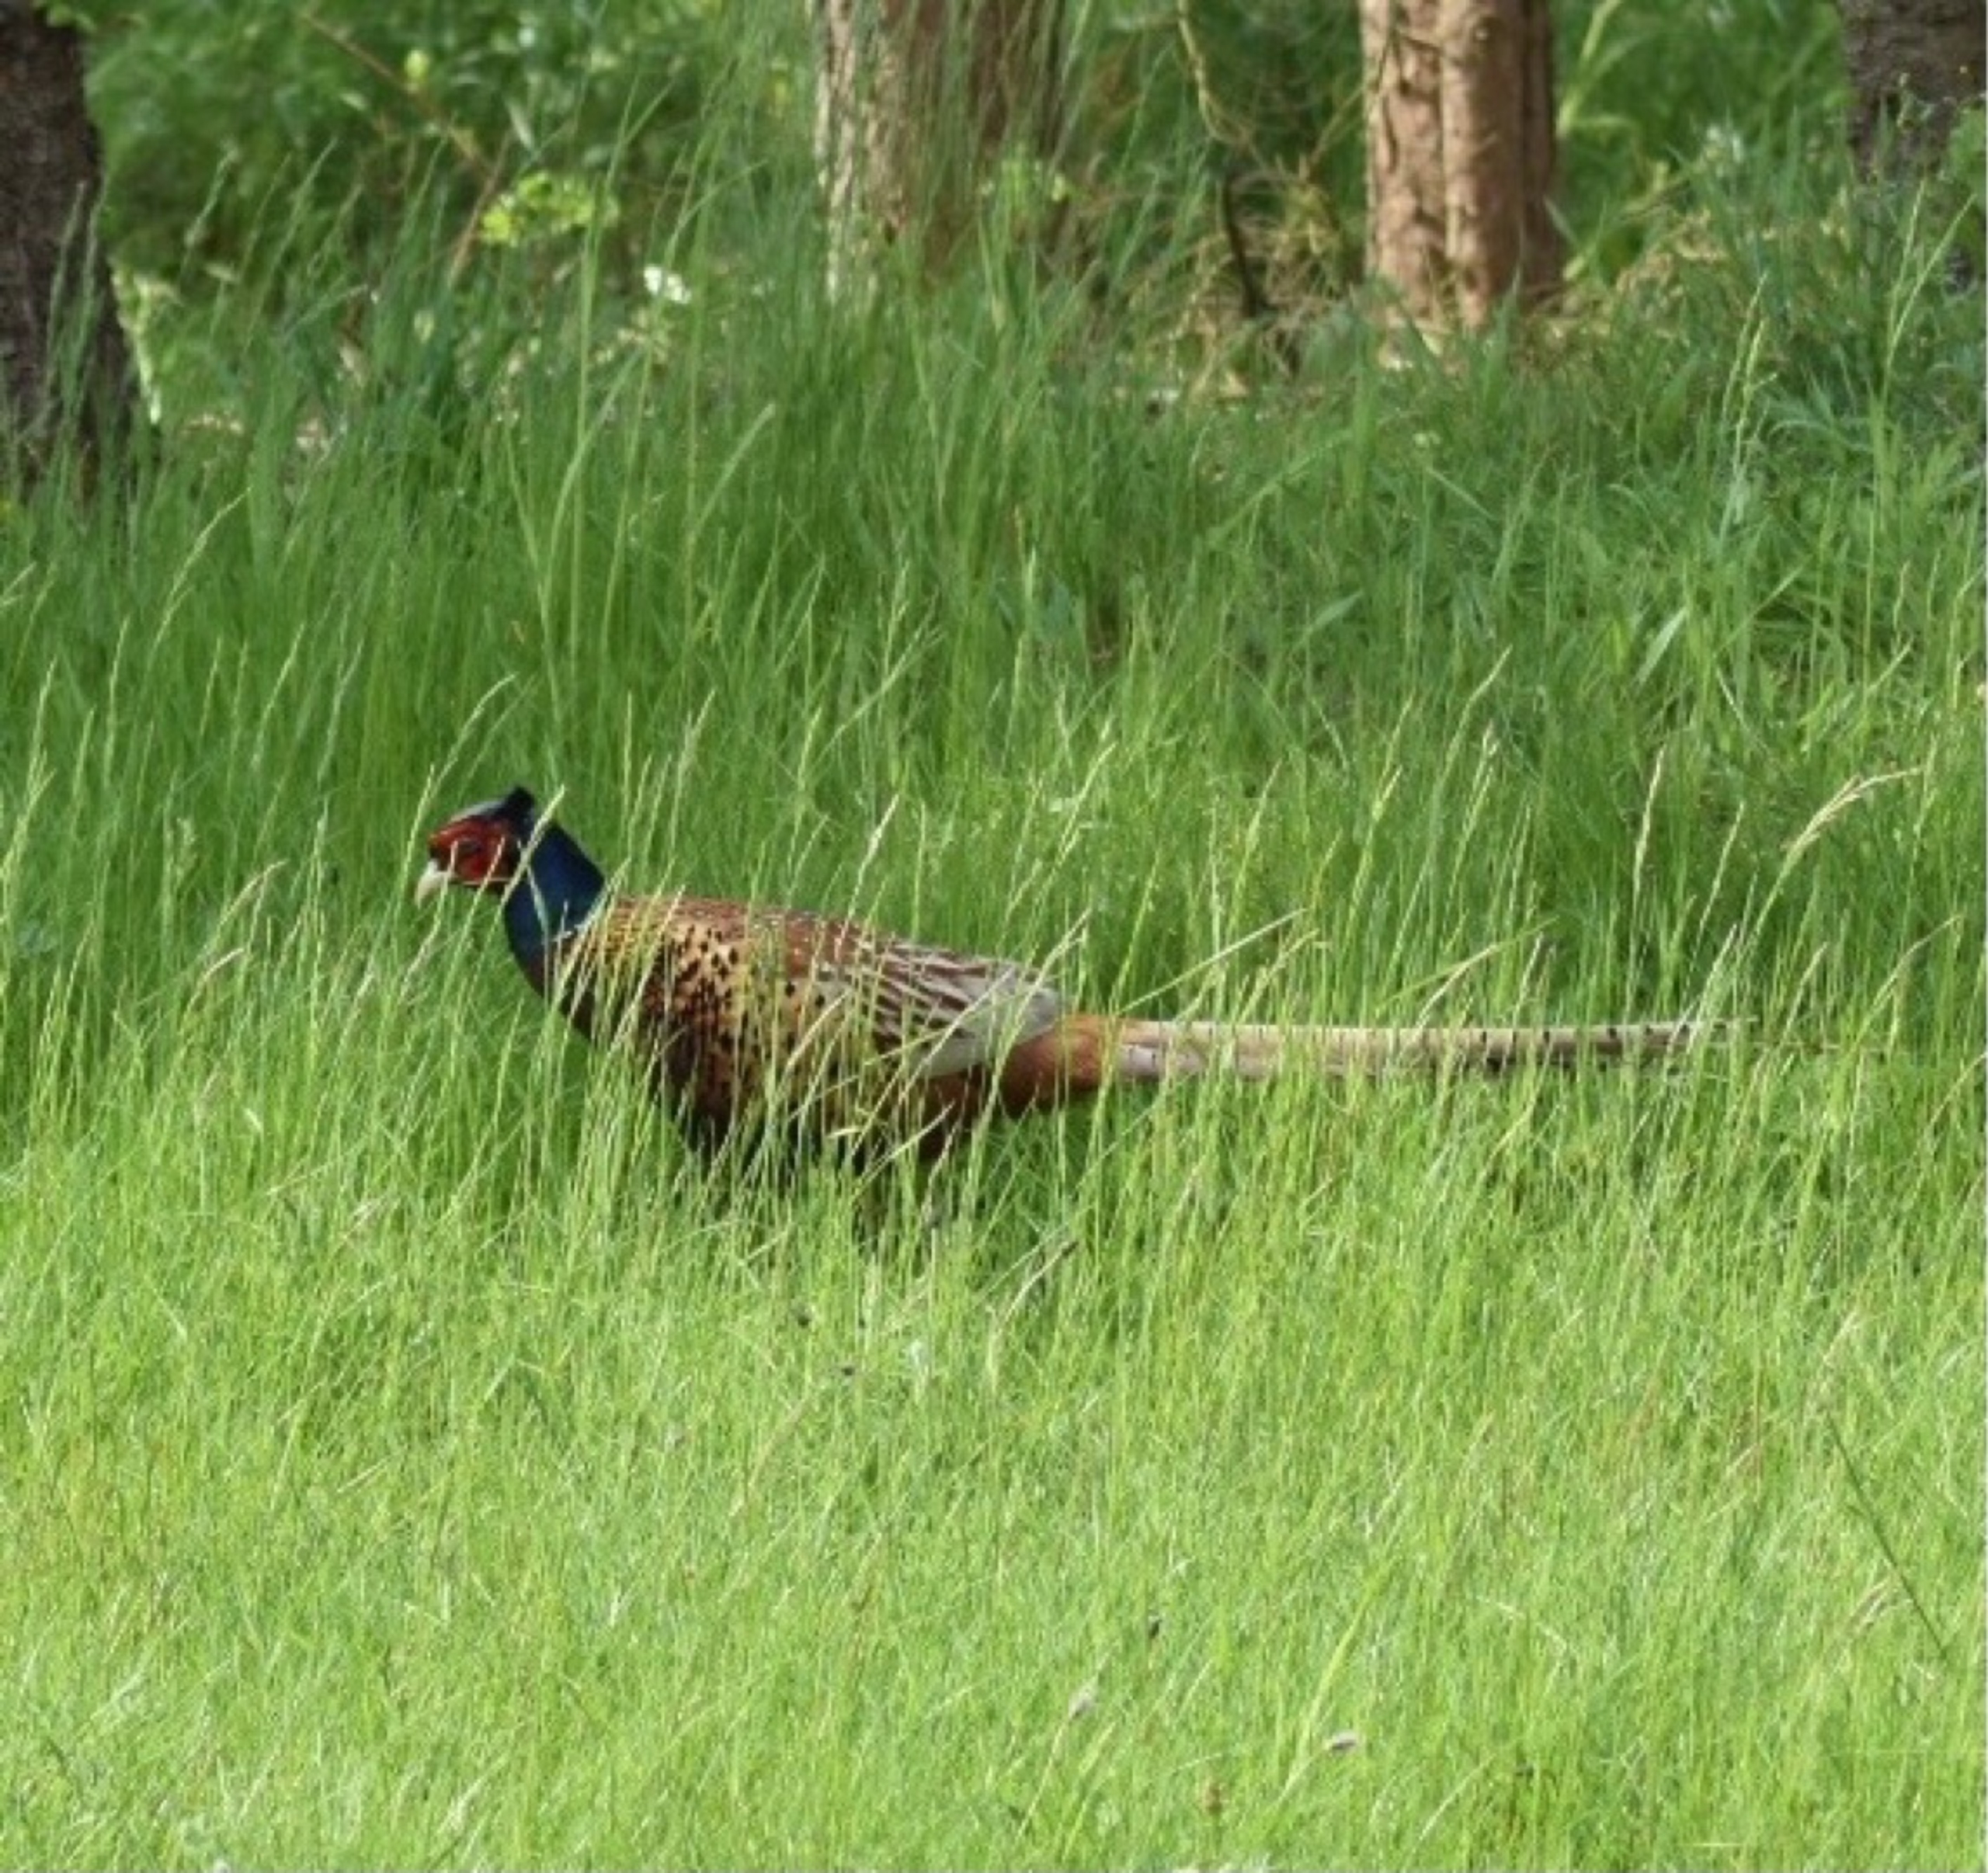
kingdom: Animalia
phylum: Chordata
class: Aves
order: Galliformes
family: Phasianidae
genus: Phasianus
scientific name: Phasianus colchicus
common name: Fasan
